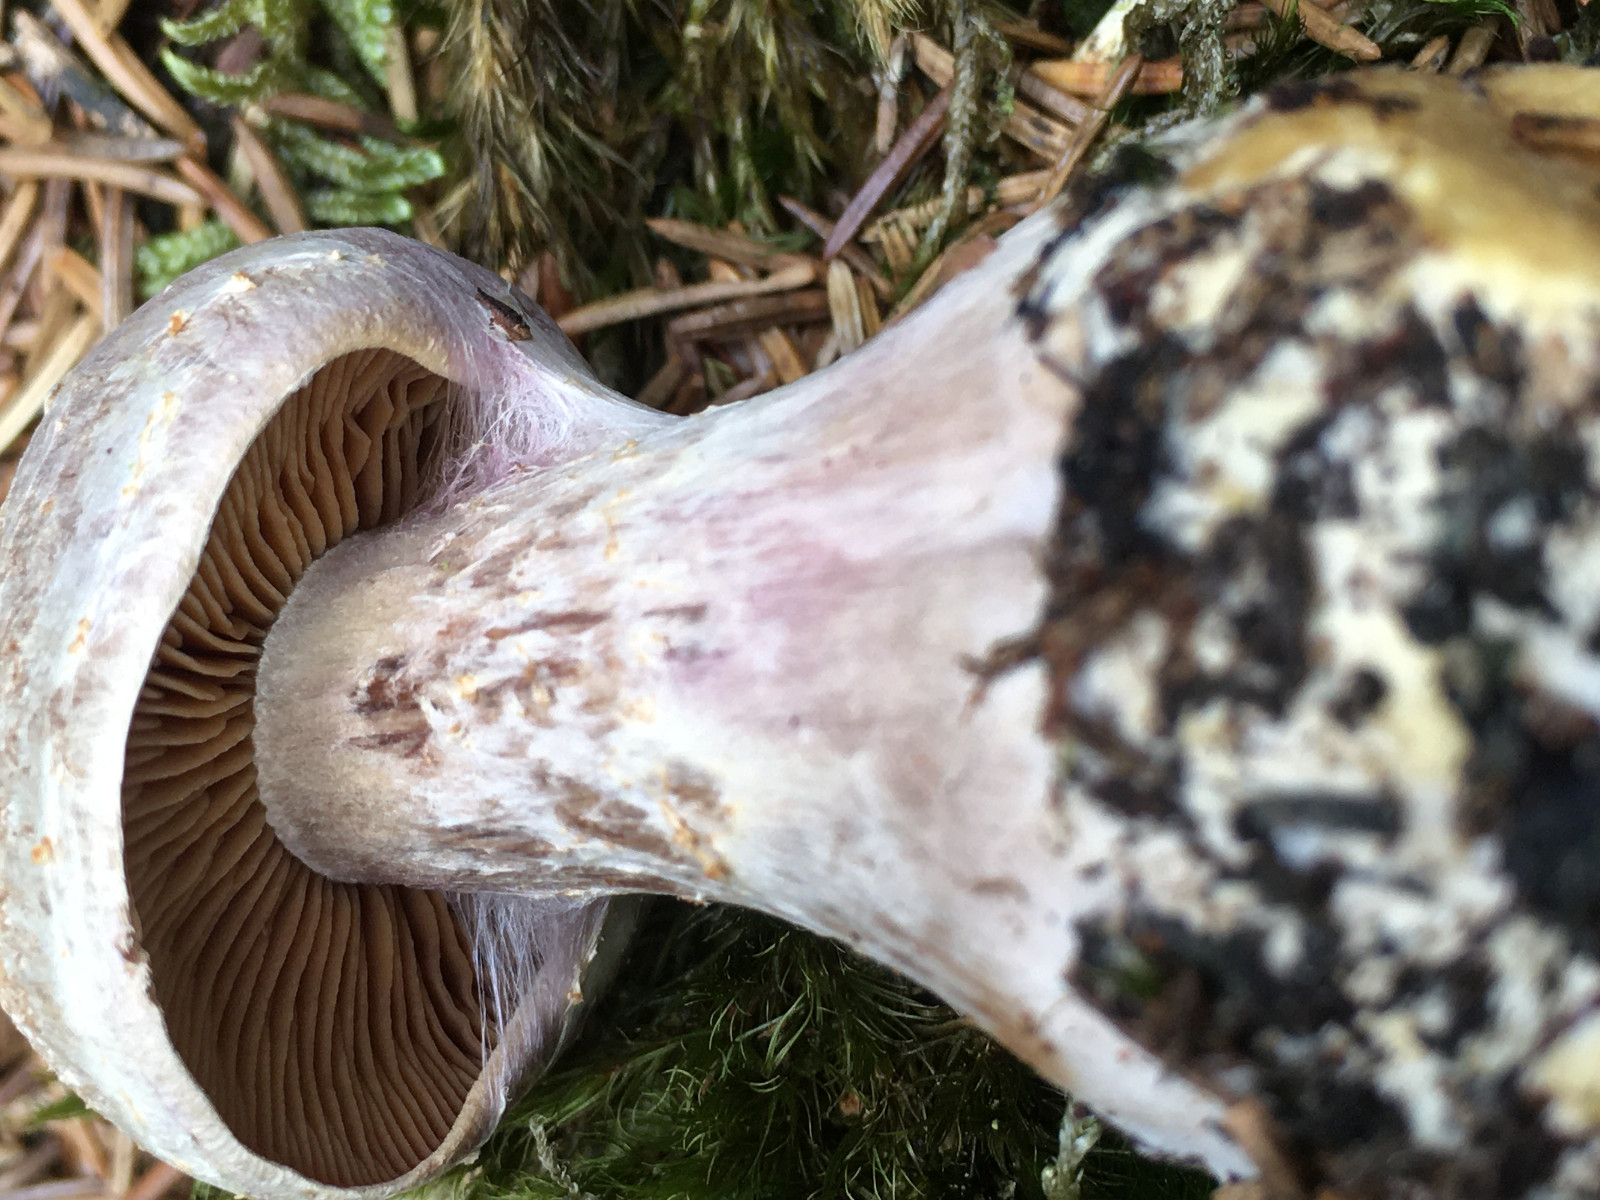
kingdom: Fungi
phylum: Basidiomycota
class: Agaricomycetes
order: Agaricales
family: Cortinariaceae
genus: Cortinarius
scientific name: Cortinarius traganus
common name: safrankødet slørhat
